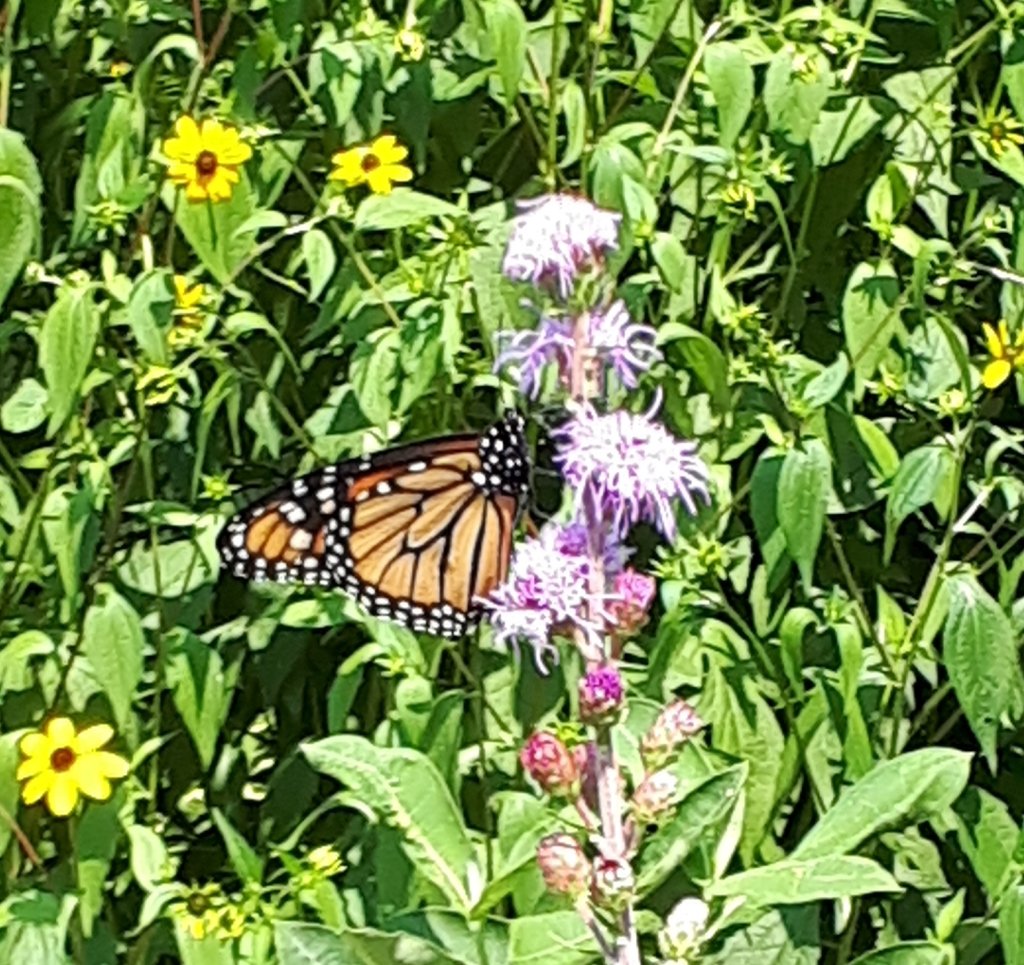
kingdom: Animalia
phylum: Arthropoda
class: Insecta
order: Lepidoptera
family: Nymphalidae
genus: Danaus
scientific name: Danaus plexippus
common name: Monarch
